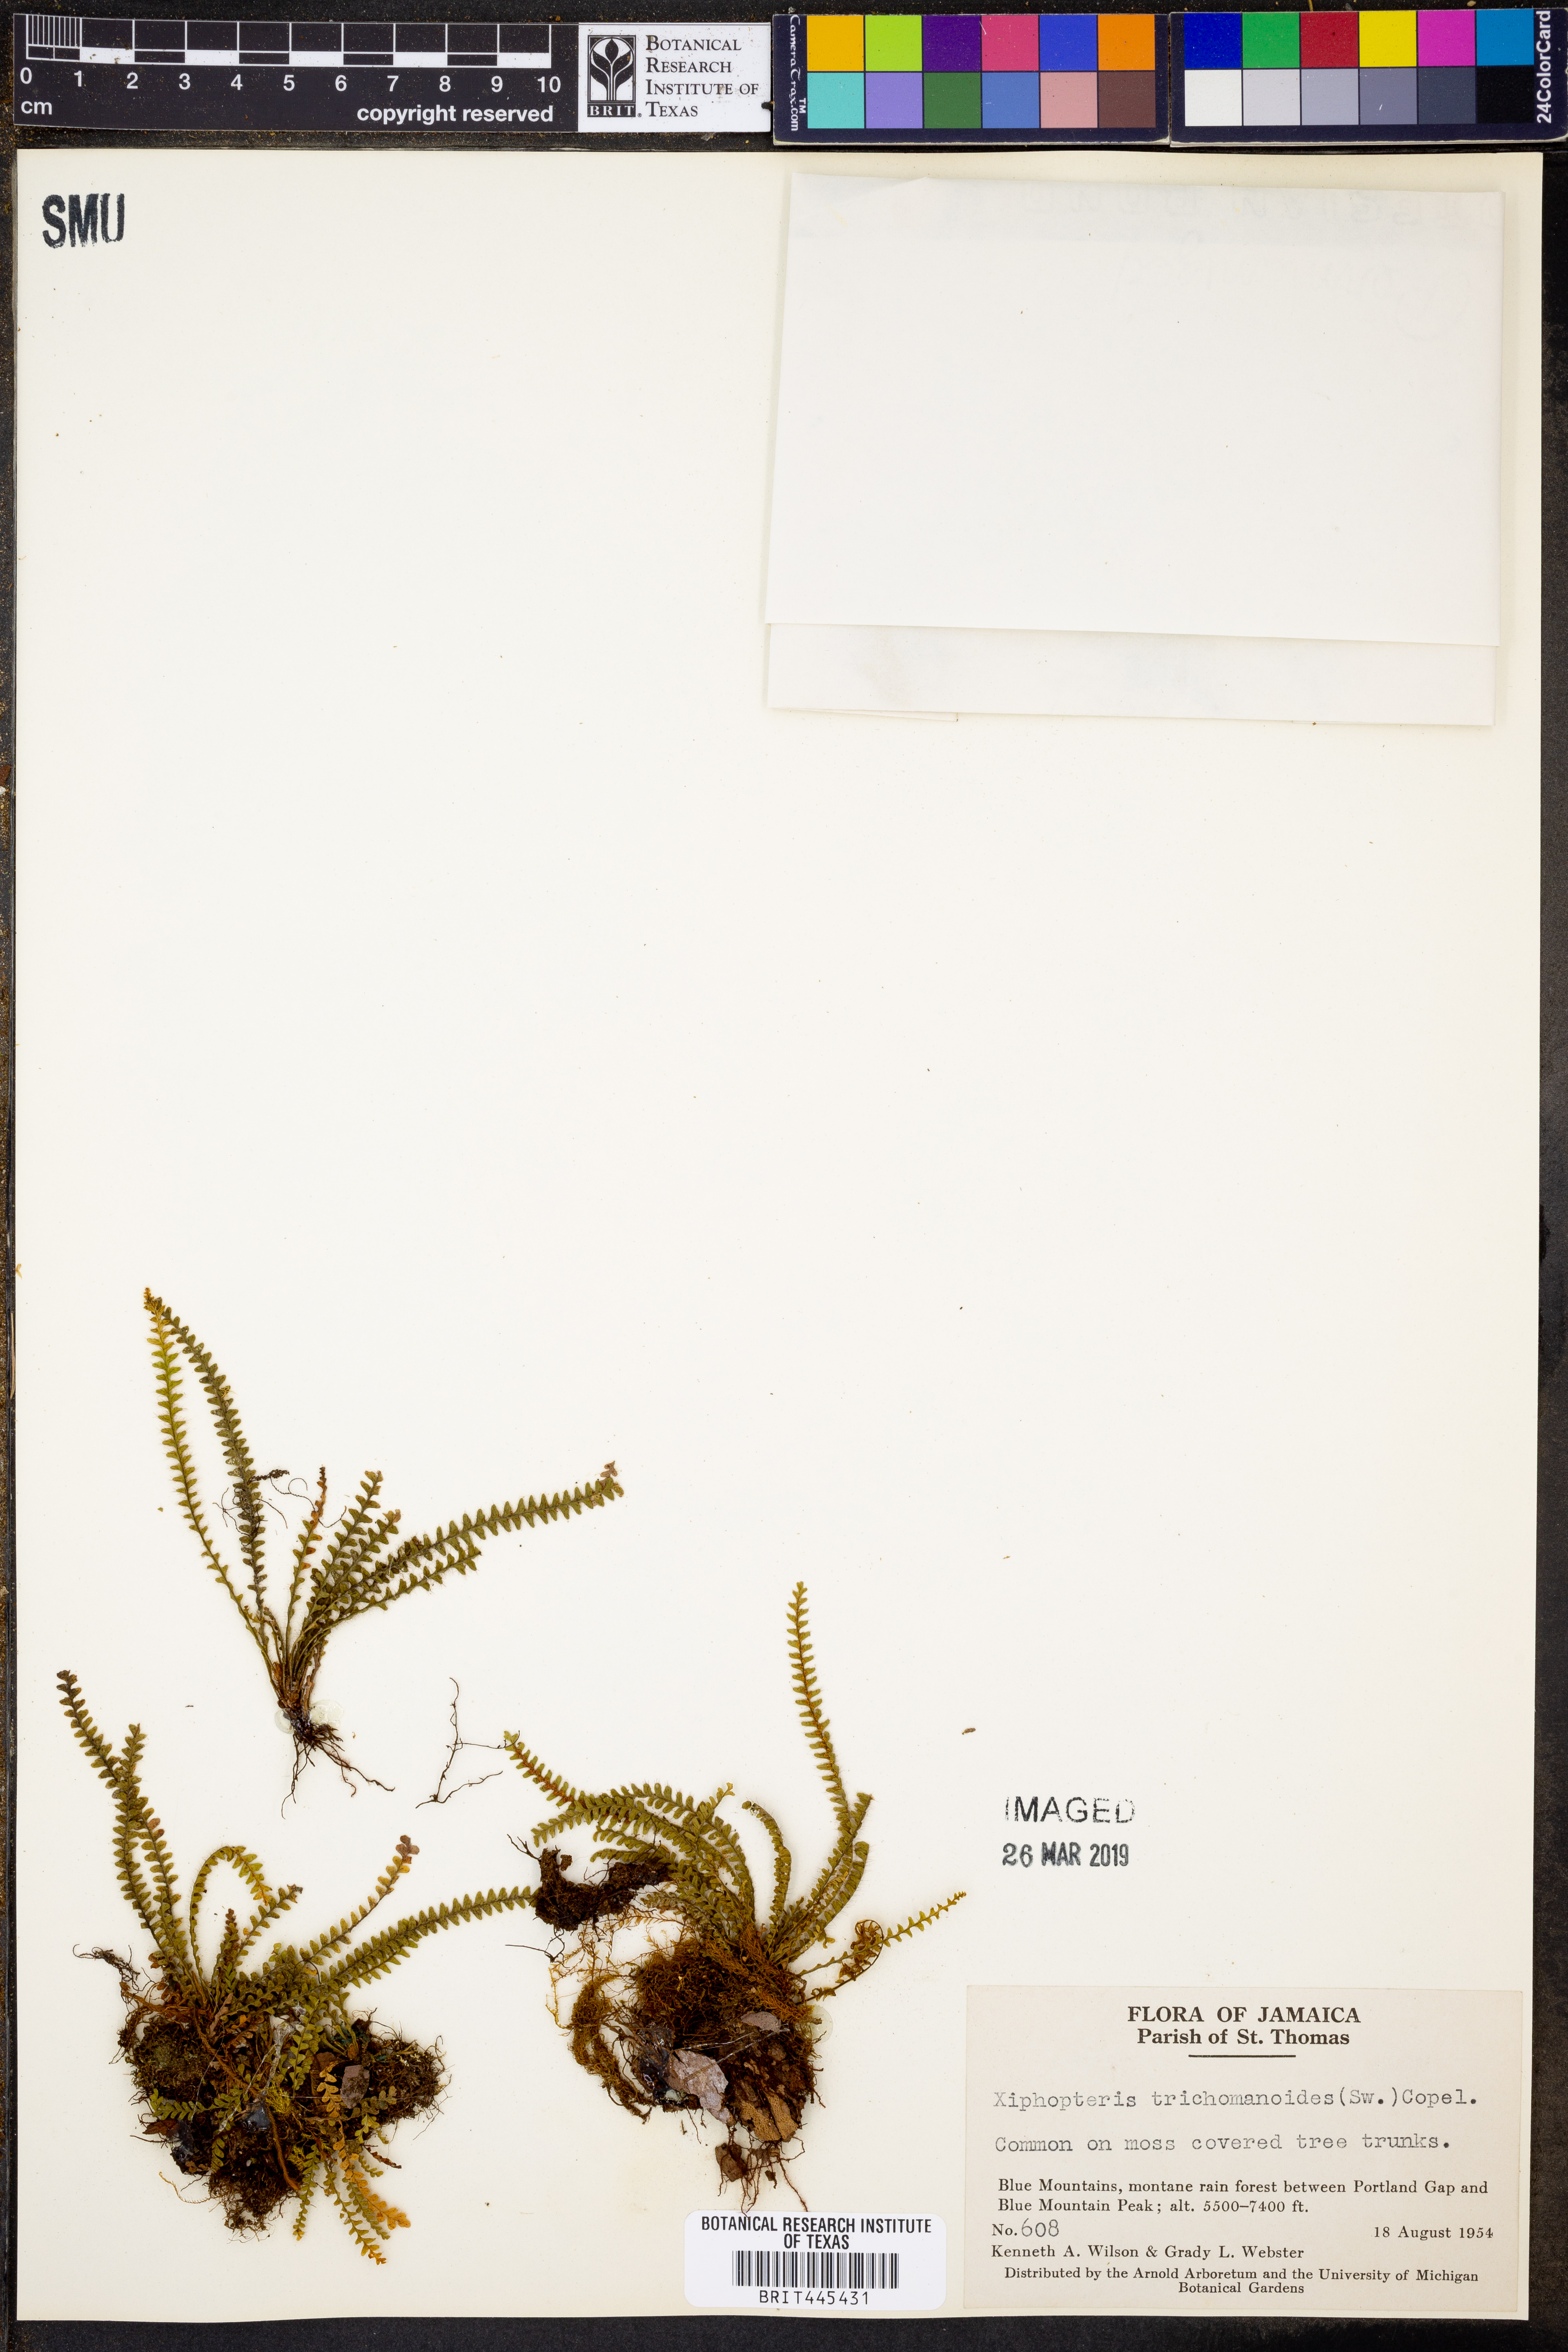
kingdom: Plantae
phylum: Tracheophyta
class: Polypodiopsida
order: Polypodiales
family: Polypodiaceae
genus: Moranopteris
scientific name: Moranopteris trichomanoides
